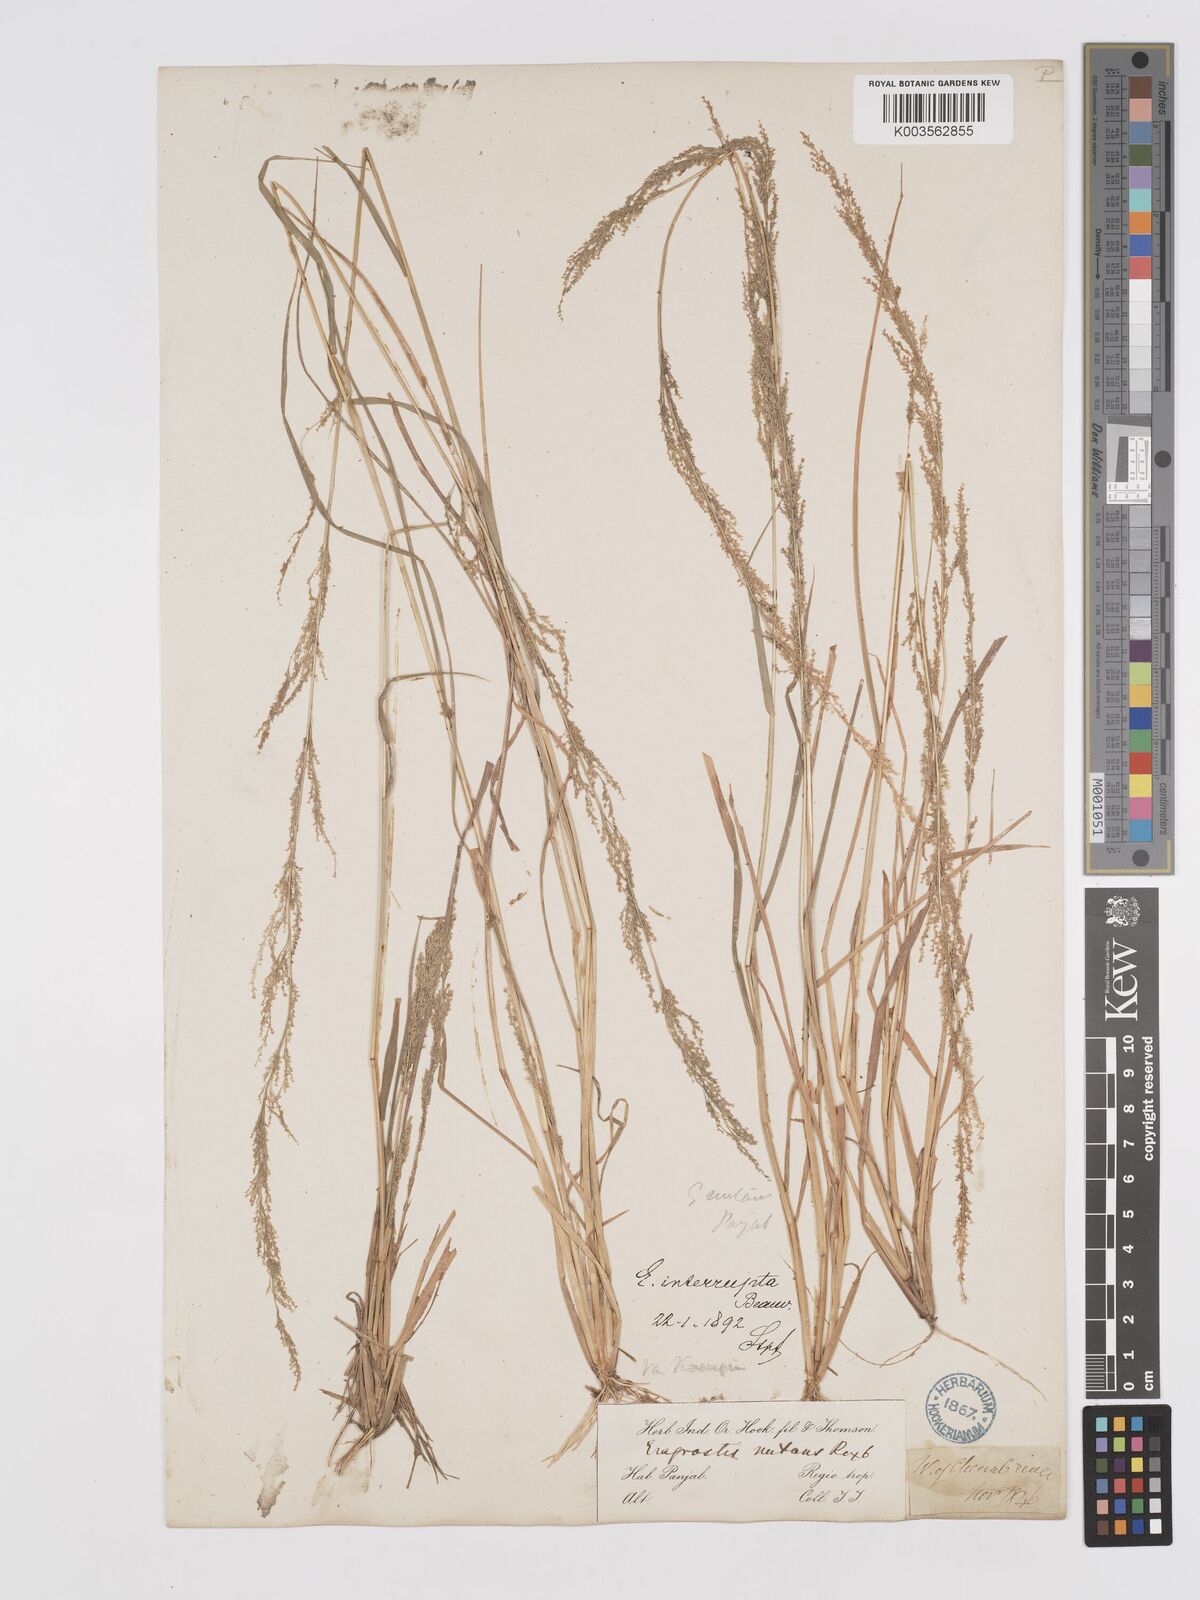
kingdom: Plantae
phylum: Tracheophyta
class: Liliopsida
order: Poales
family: Poaceae
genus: Eragrostis
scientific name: Eragrostis japonica
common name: Pond lovegrass
